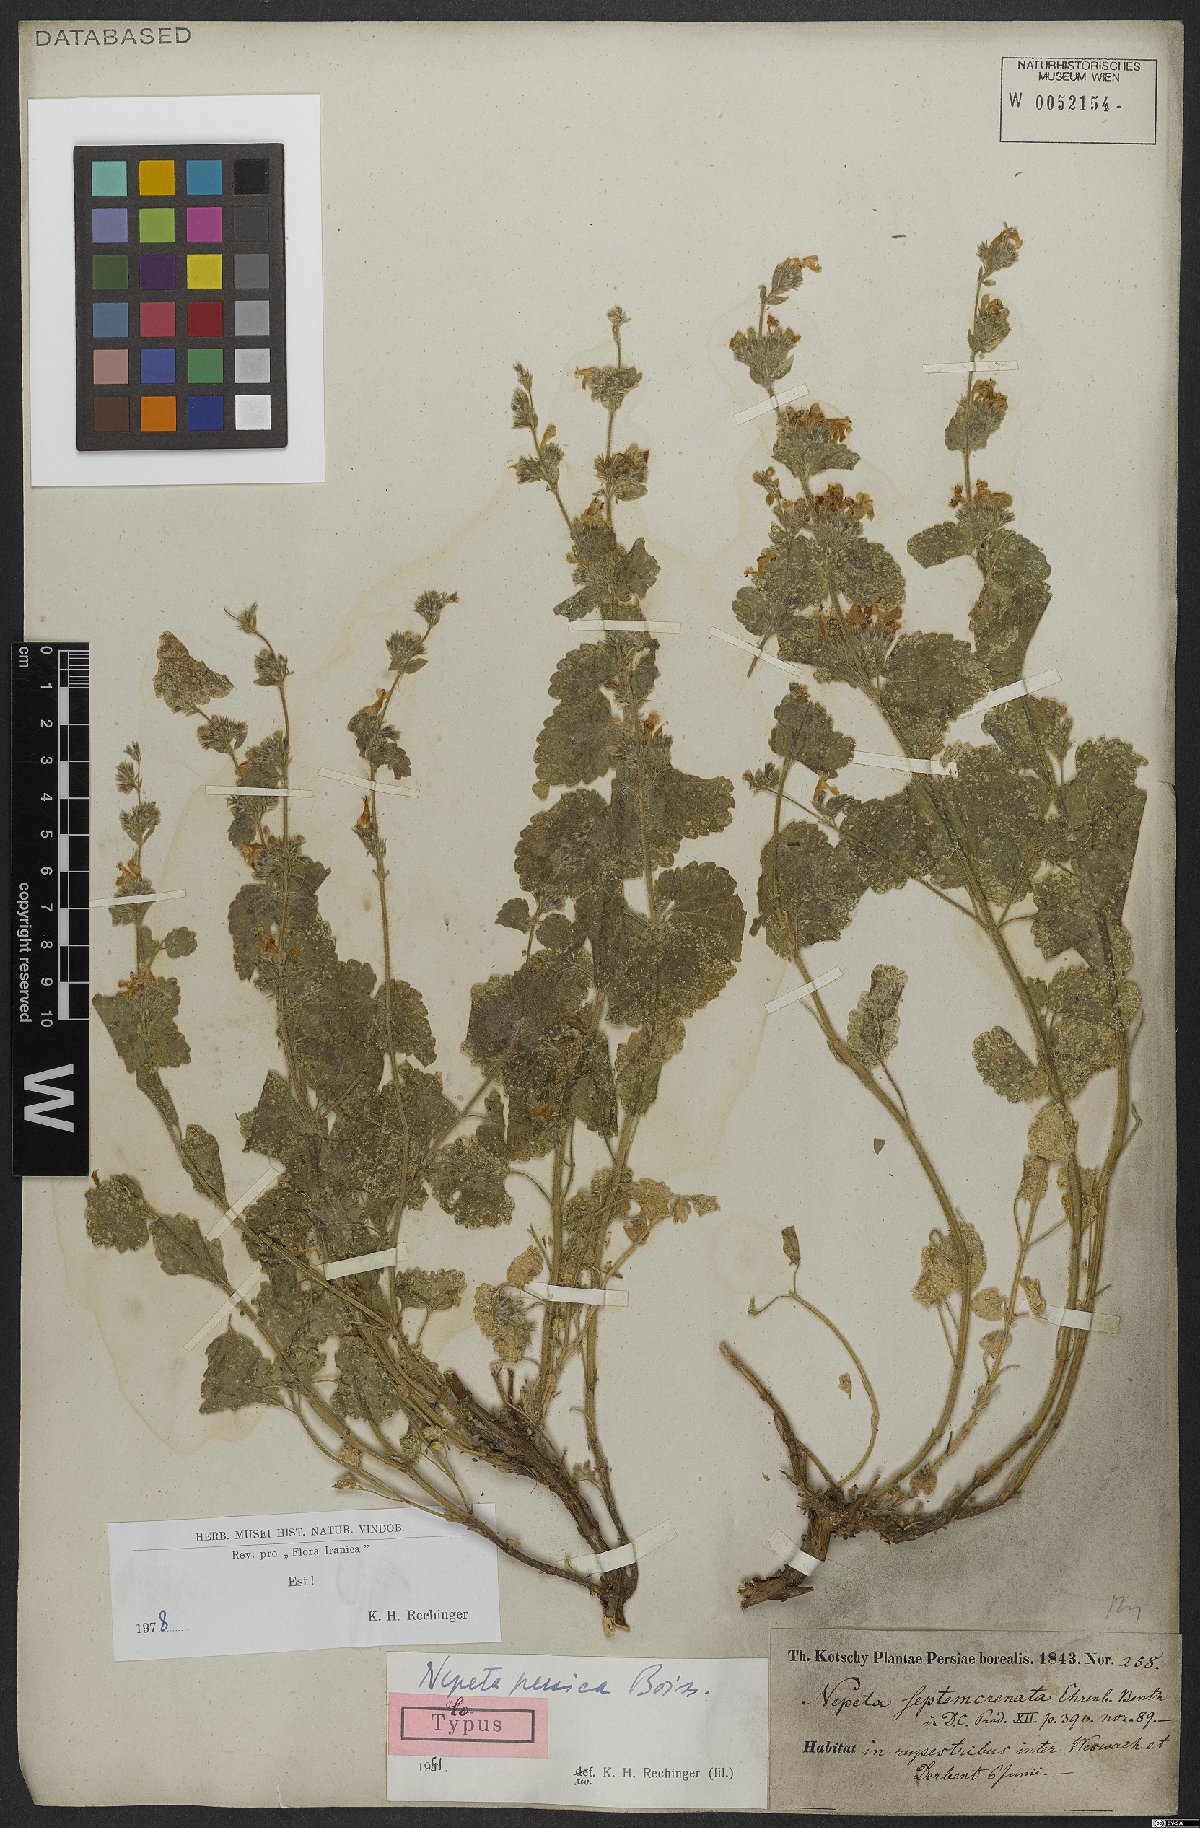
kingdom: Plantae
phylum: Tracheophyta
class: Magnoliopsida
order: Lamiales
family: Lamiaceae
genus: Nepeta
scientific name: Nepeta persica
